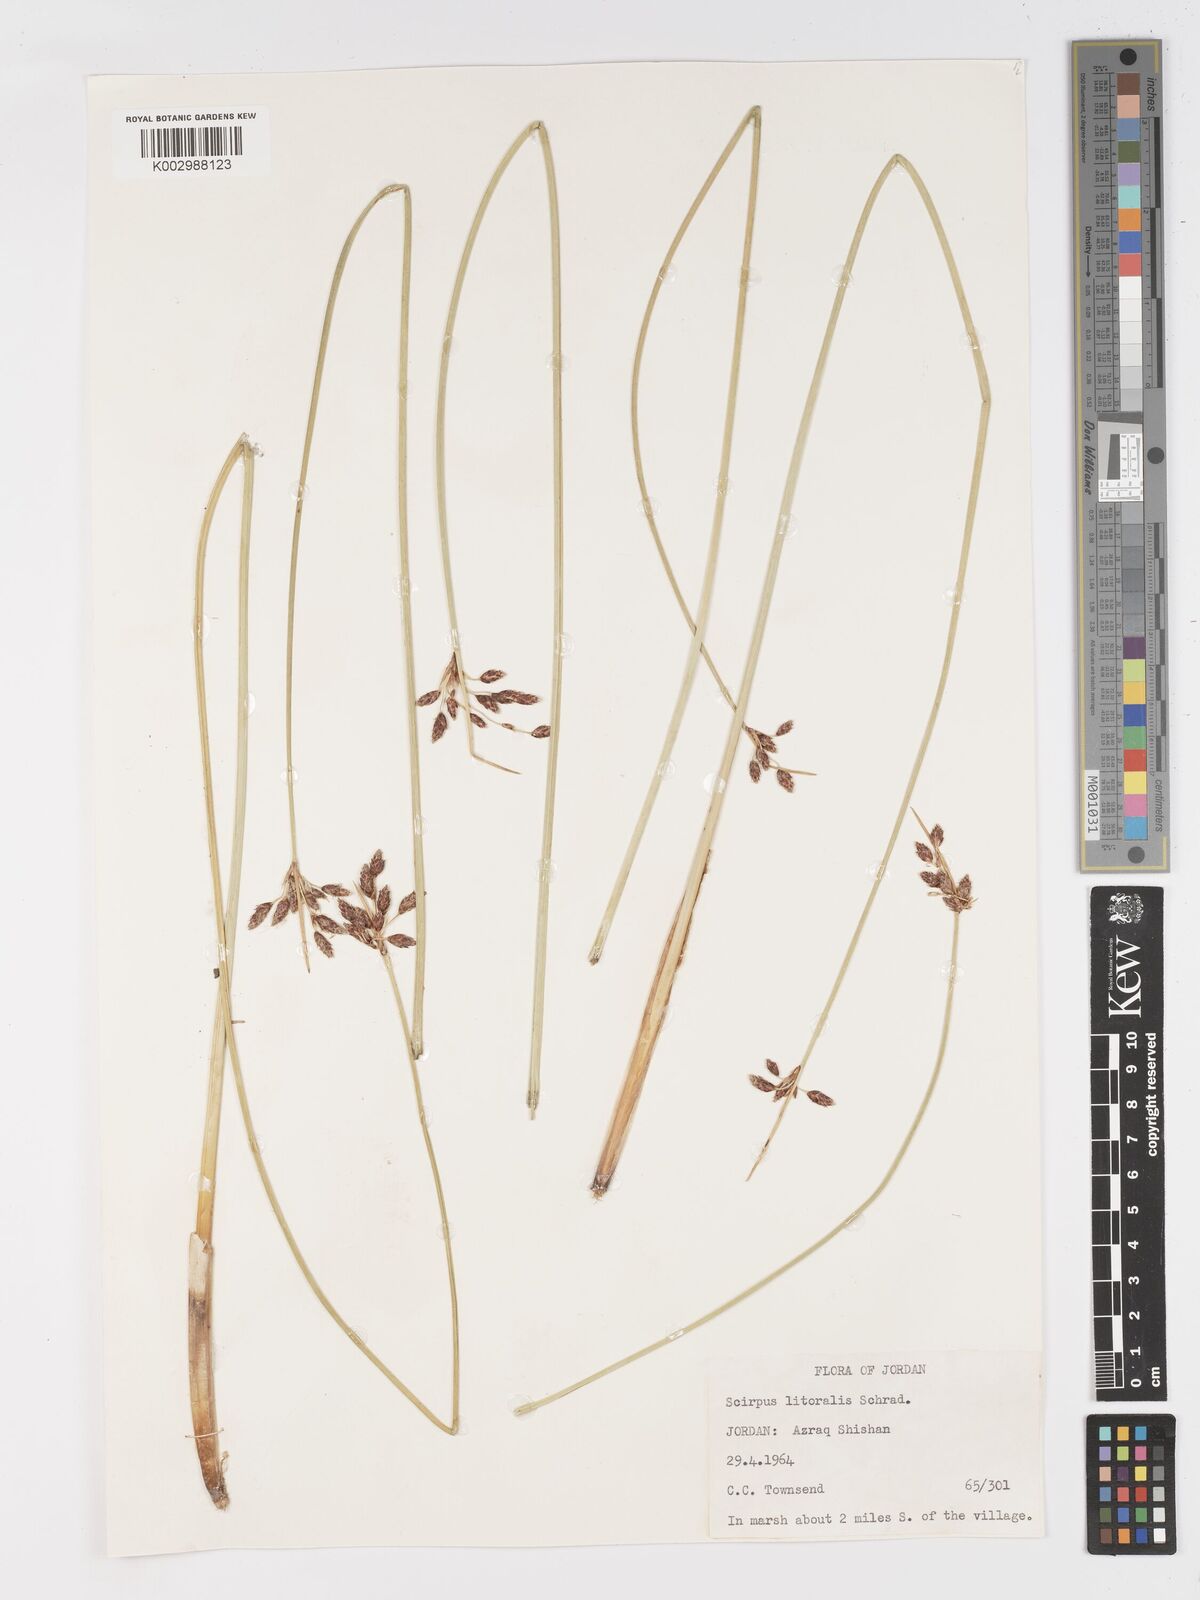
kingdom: Plantae
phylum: Tracheophyta
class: Liliopsida
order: Poales
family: Cyperaceae
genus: Schoenoplectus
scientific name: Schoenoplectus litoralis
